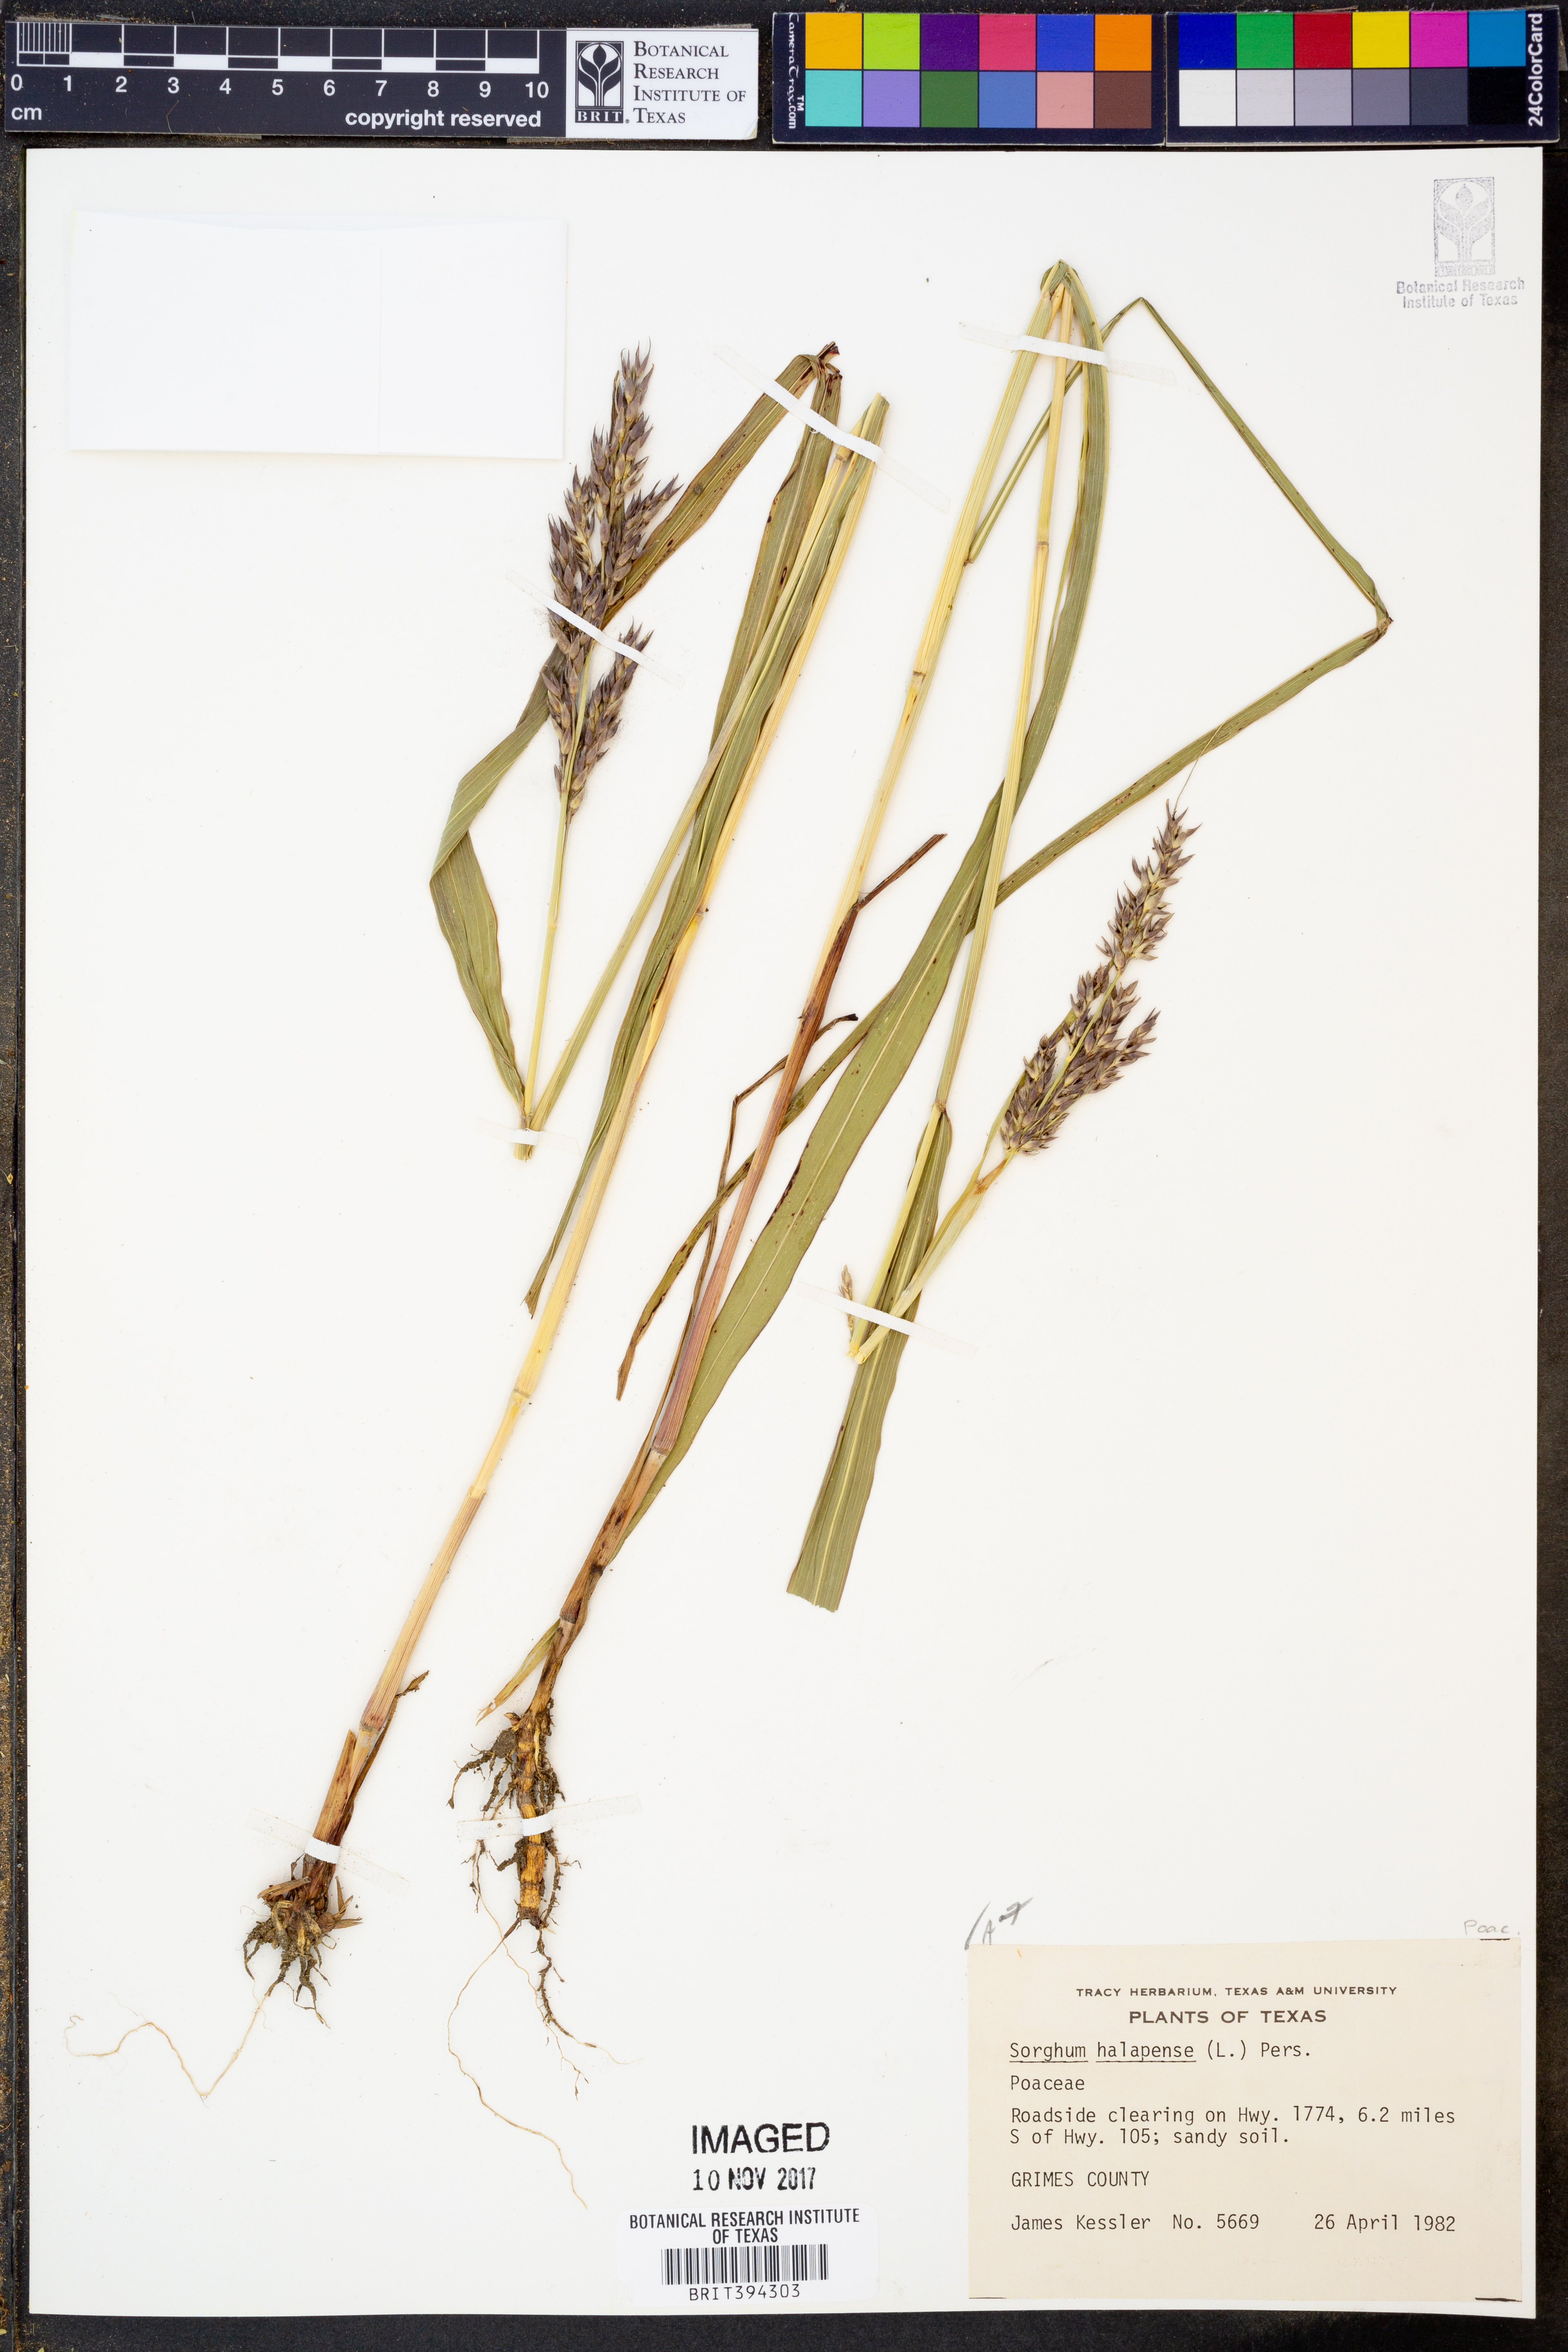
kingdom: Plantae
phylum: Tracheophyta
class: Liliopsida
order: Poales
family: Poaceae
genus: Sorghum
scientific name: Sorghum halepense
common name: Johnson-grass
